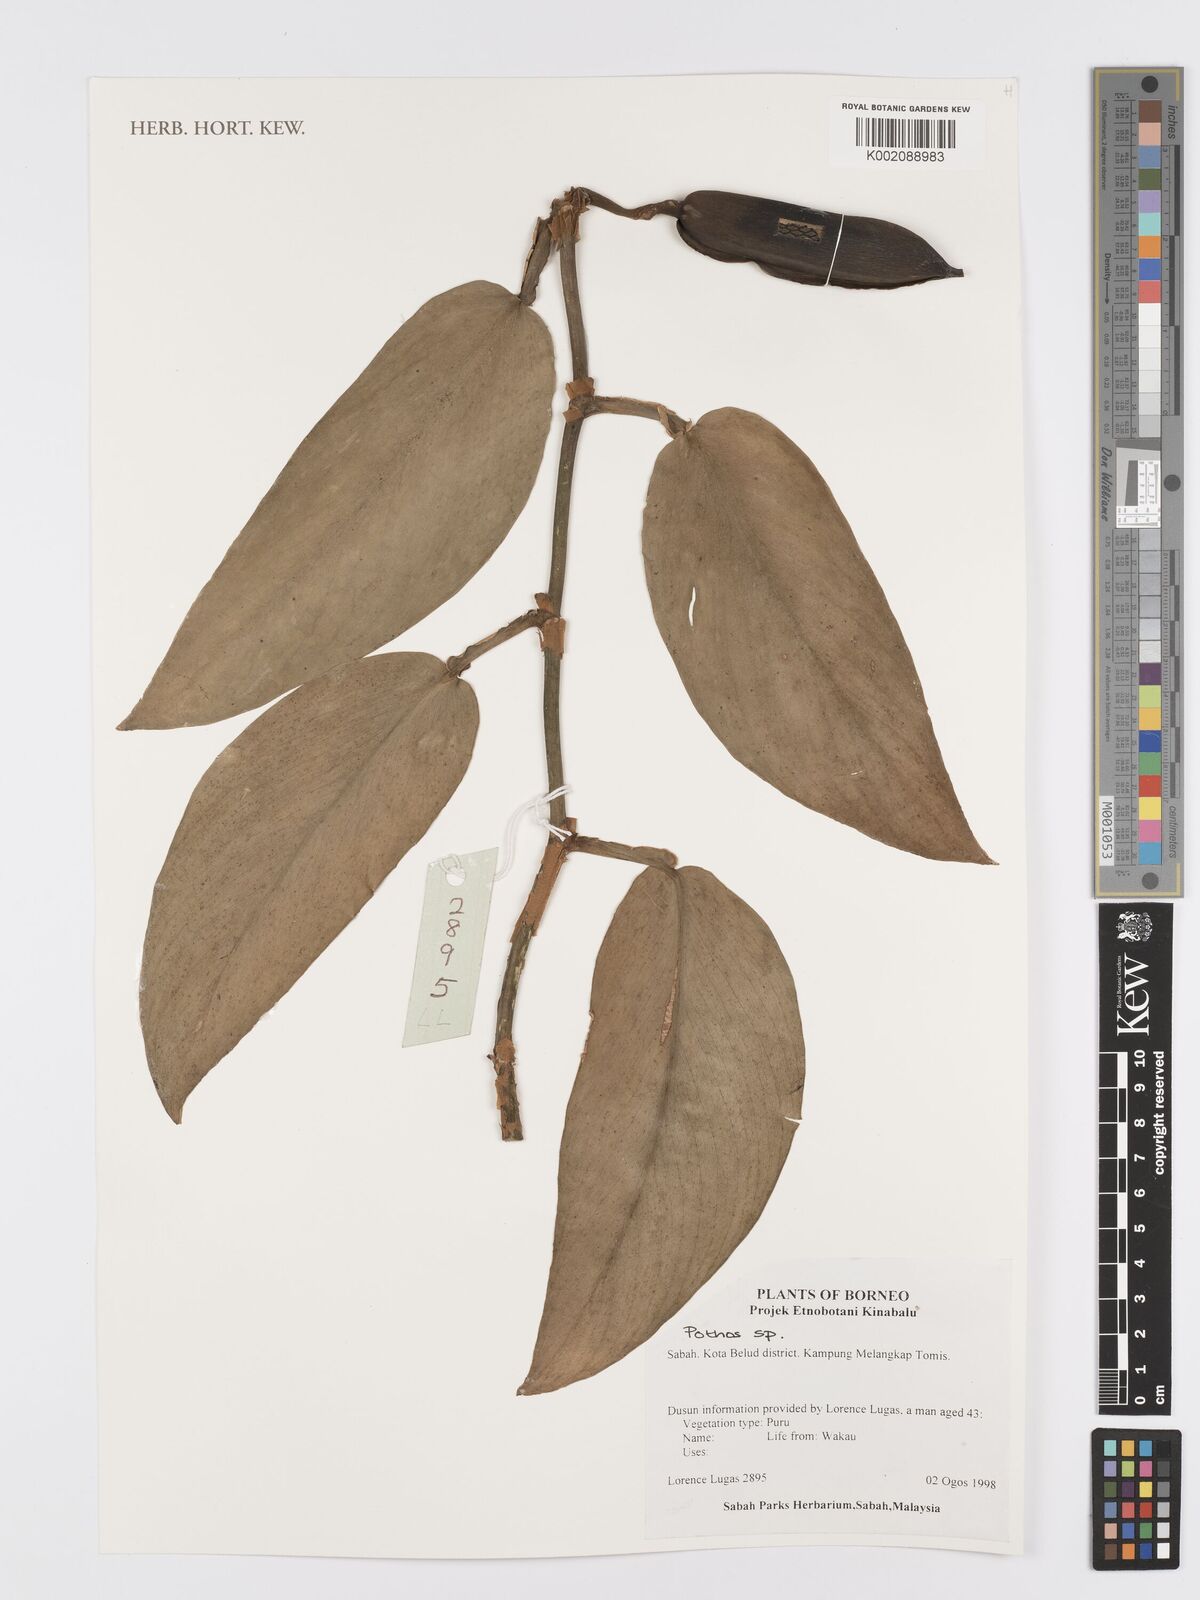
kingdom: Plantae
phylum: Tracheophyta
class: Liliopsida
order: Alismatales
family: Araceae
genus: Pothos
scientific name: Pothos
